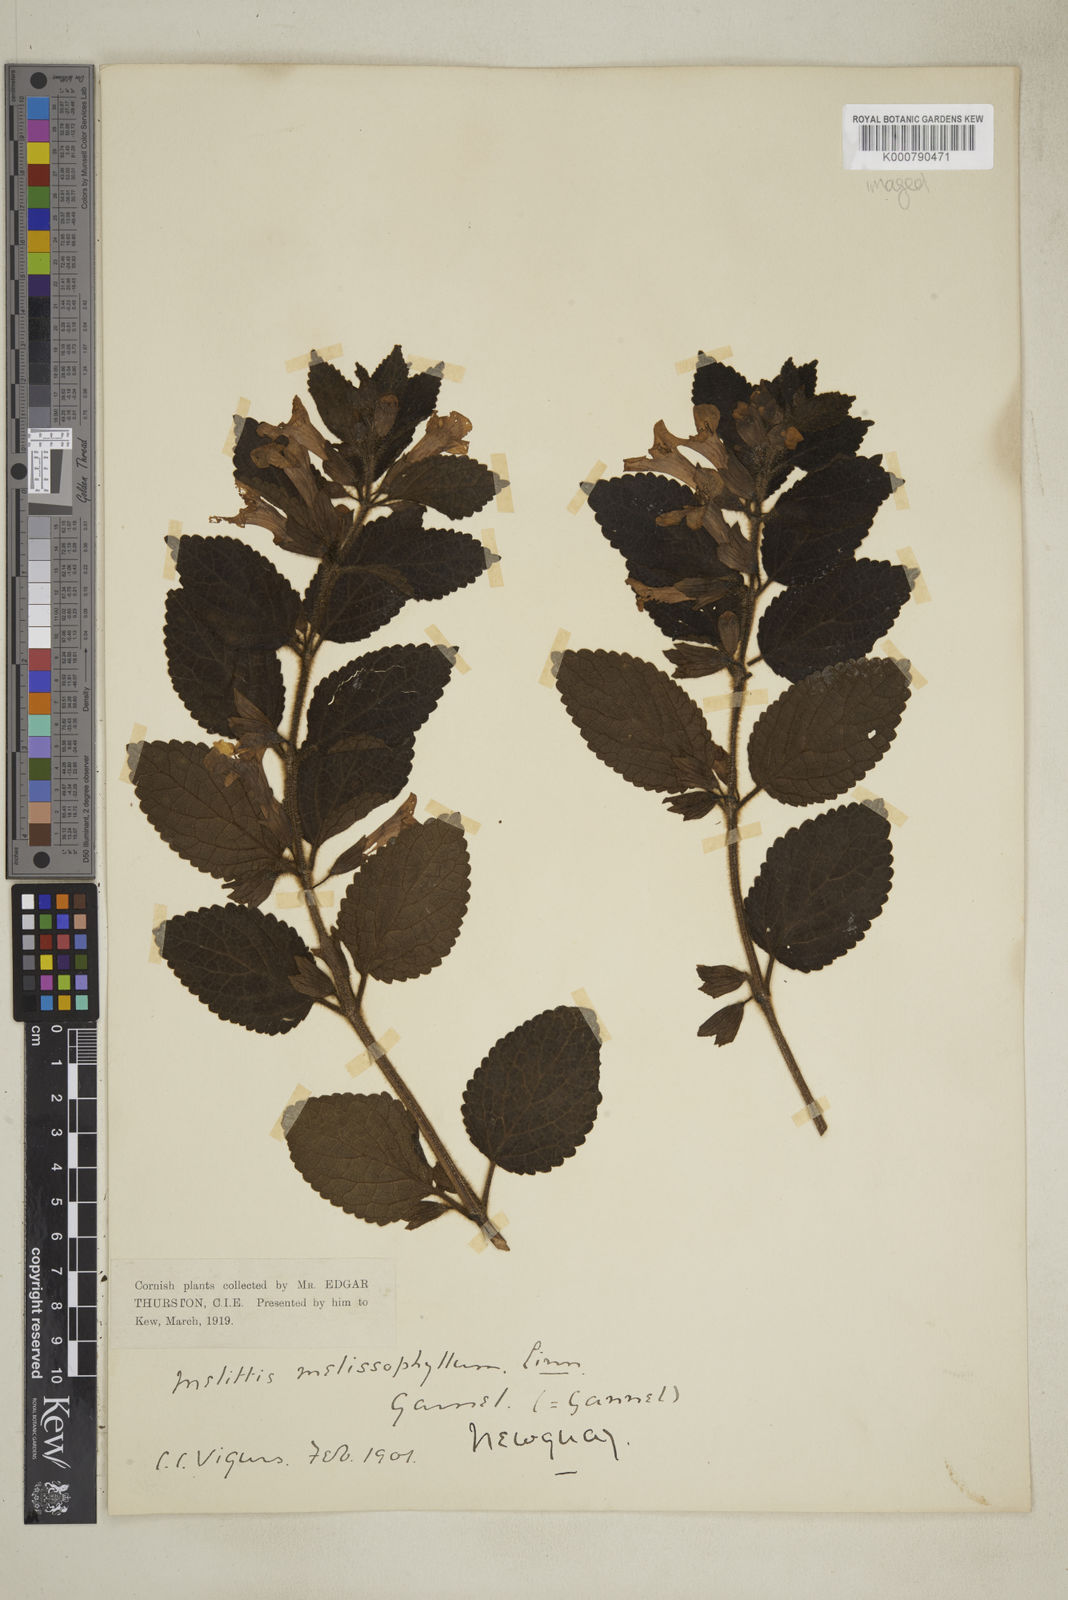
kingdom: Plantae
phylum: Tracheophyta
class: Magnoliopsida
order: Lamiales
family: Lamiaceae
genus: Melittis
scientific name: Melittis melissophyllum
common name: Bastard balm
